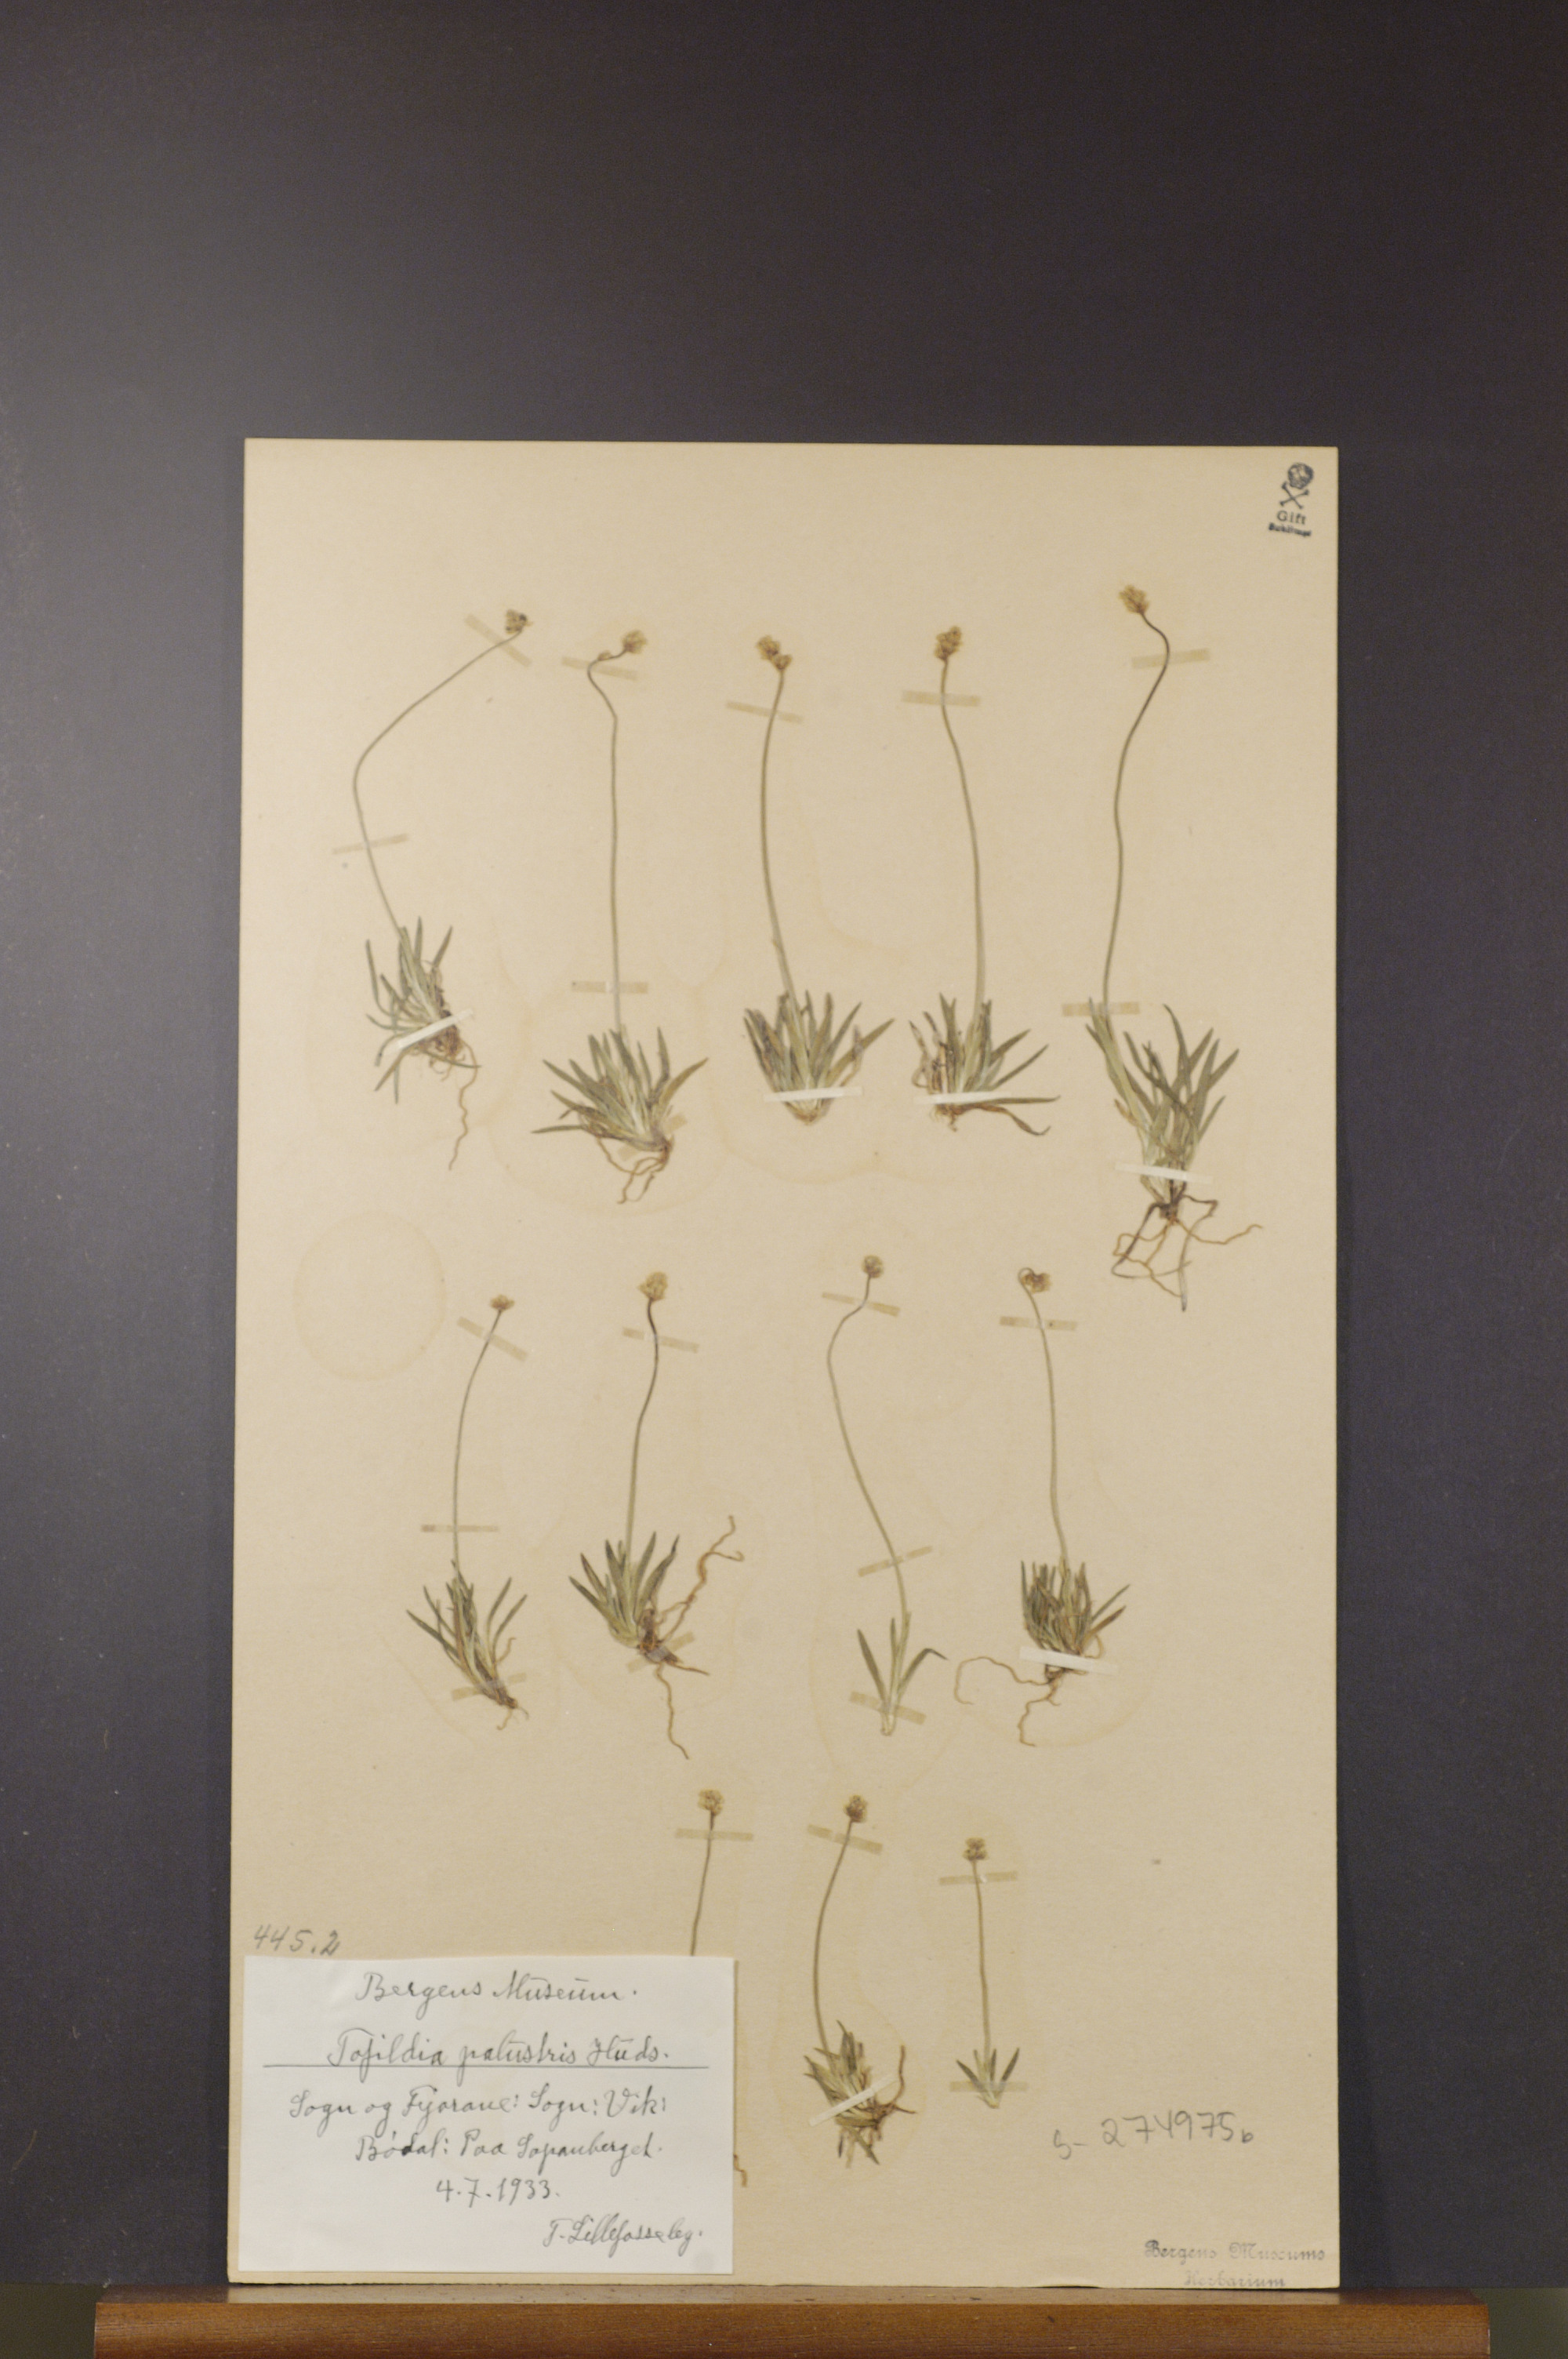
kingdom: Plantae
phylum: Tracheophyta
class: Liliopsida
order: Alismatales
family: Tofieldiaceae
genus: Tofieldia
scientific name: Tofieldia pusilla
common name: Scottish false asphodel
